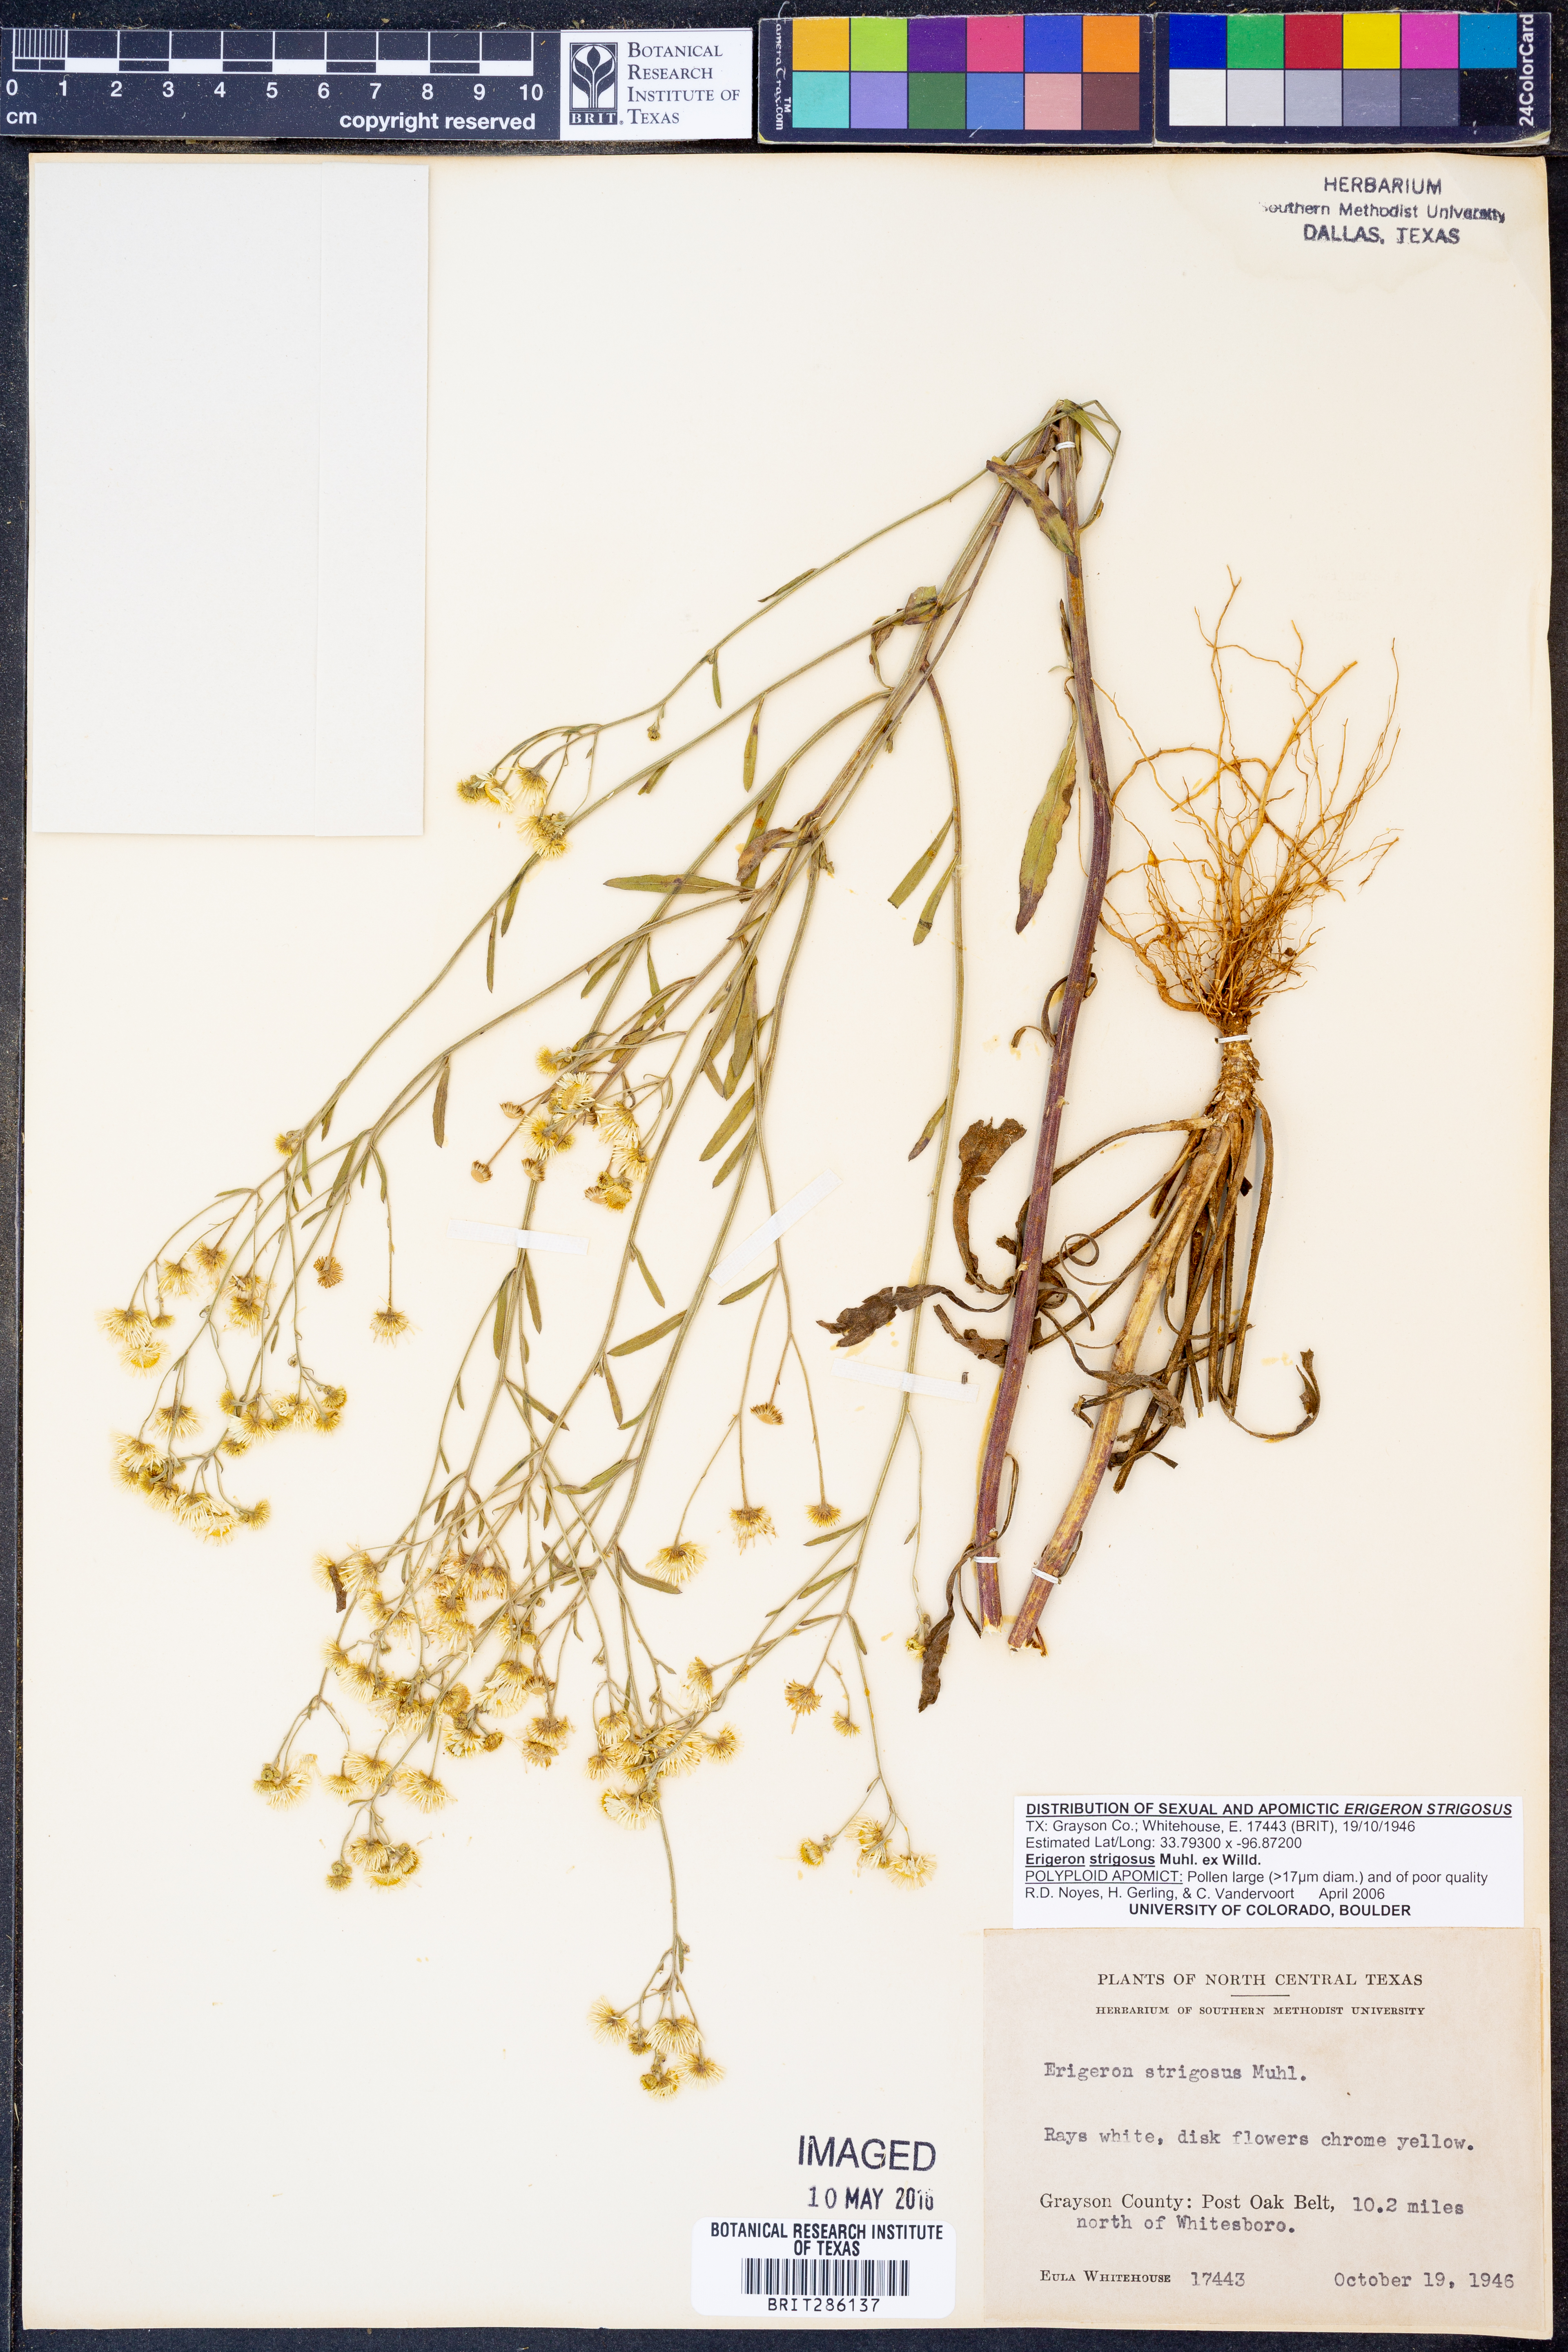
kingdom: Plantae
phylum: Tracheophyta
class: Magnoliopsida
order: Asterales
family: Asteraceae
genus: Erigeron
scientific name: Erigeron strigosus
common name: Common eastern fleabane
